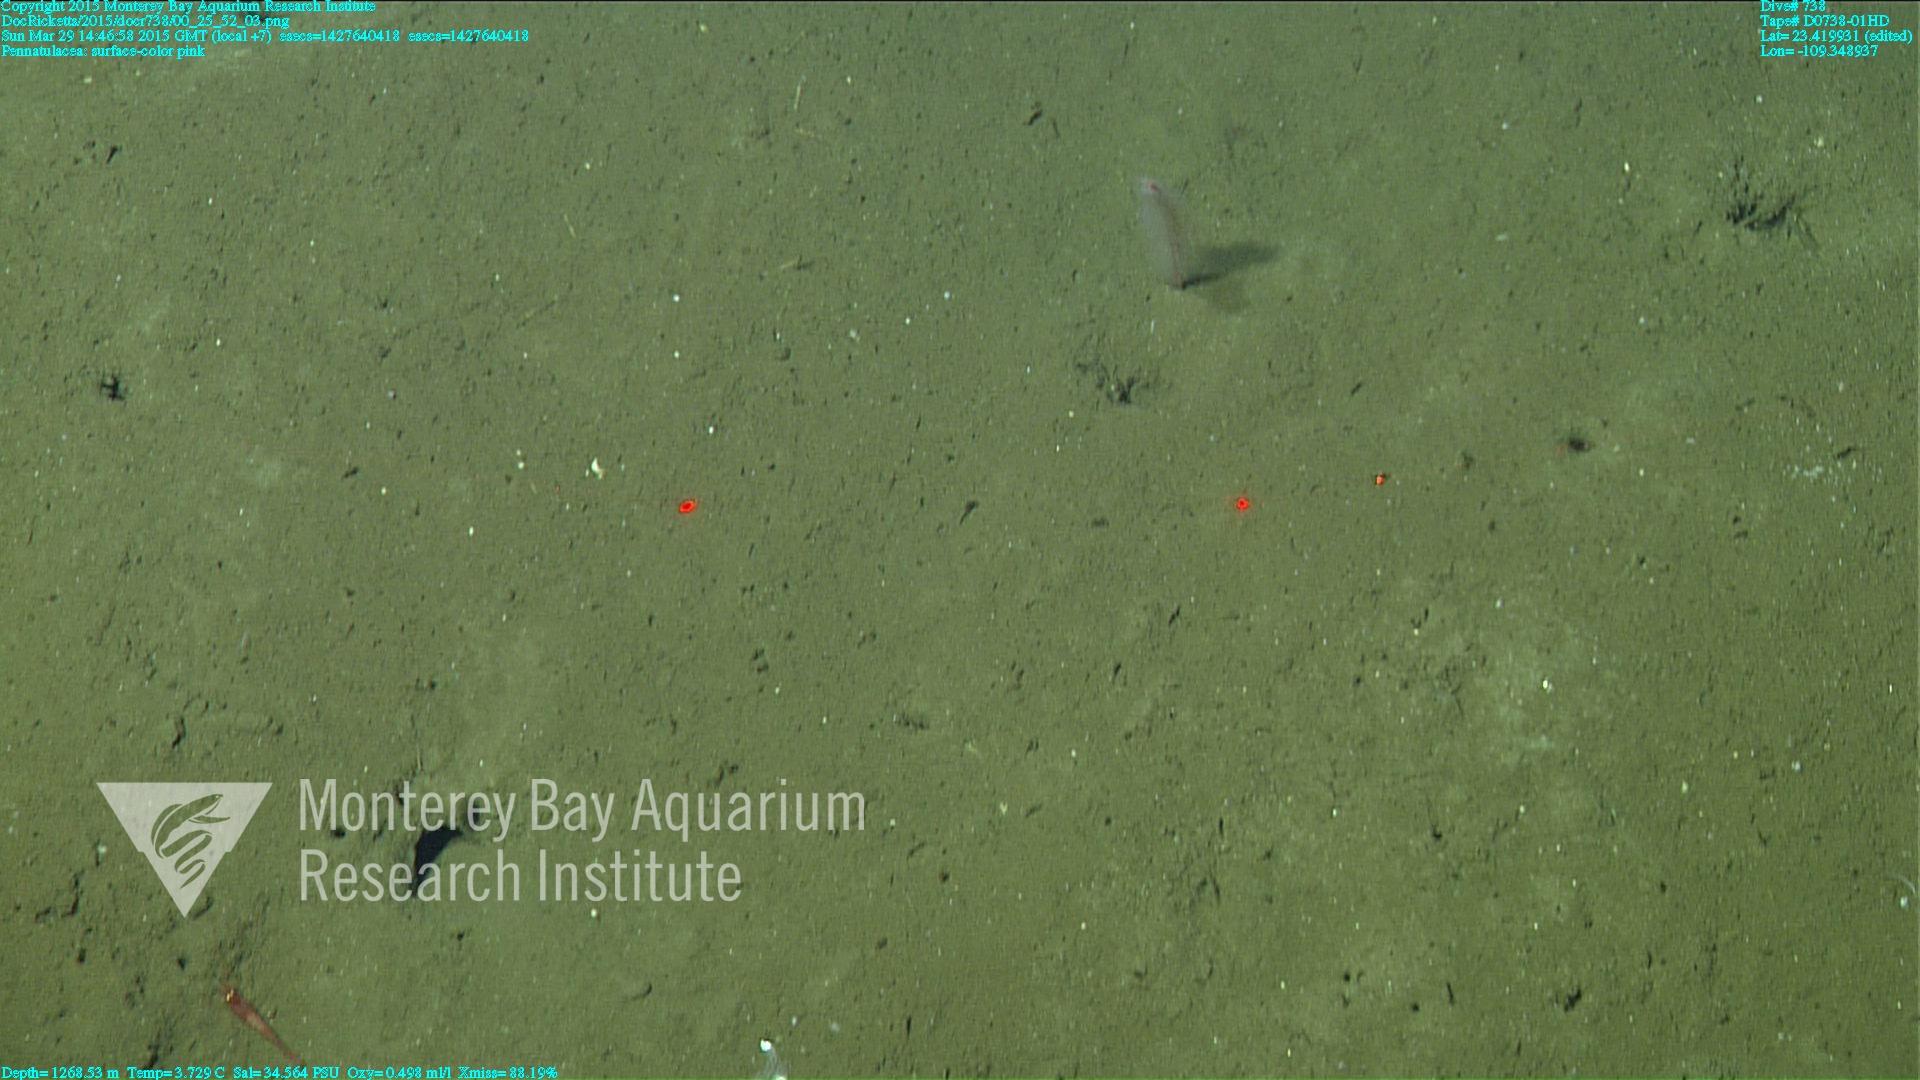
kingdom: Animalia
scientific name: Animalia
